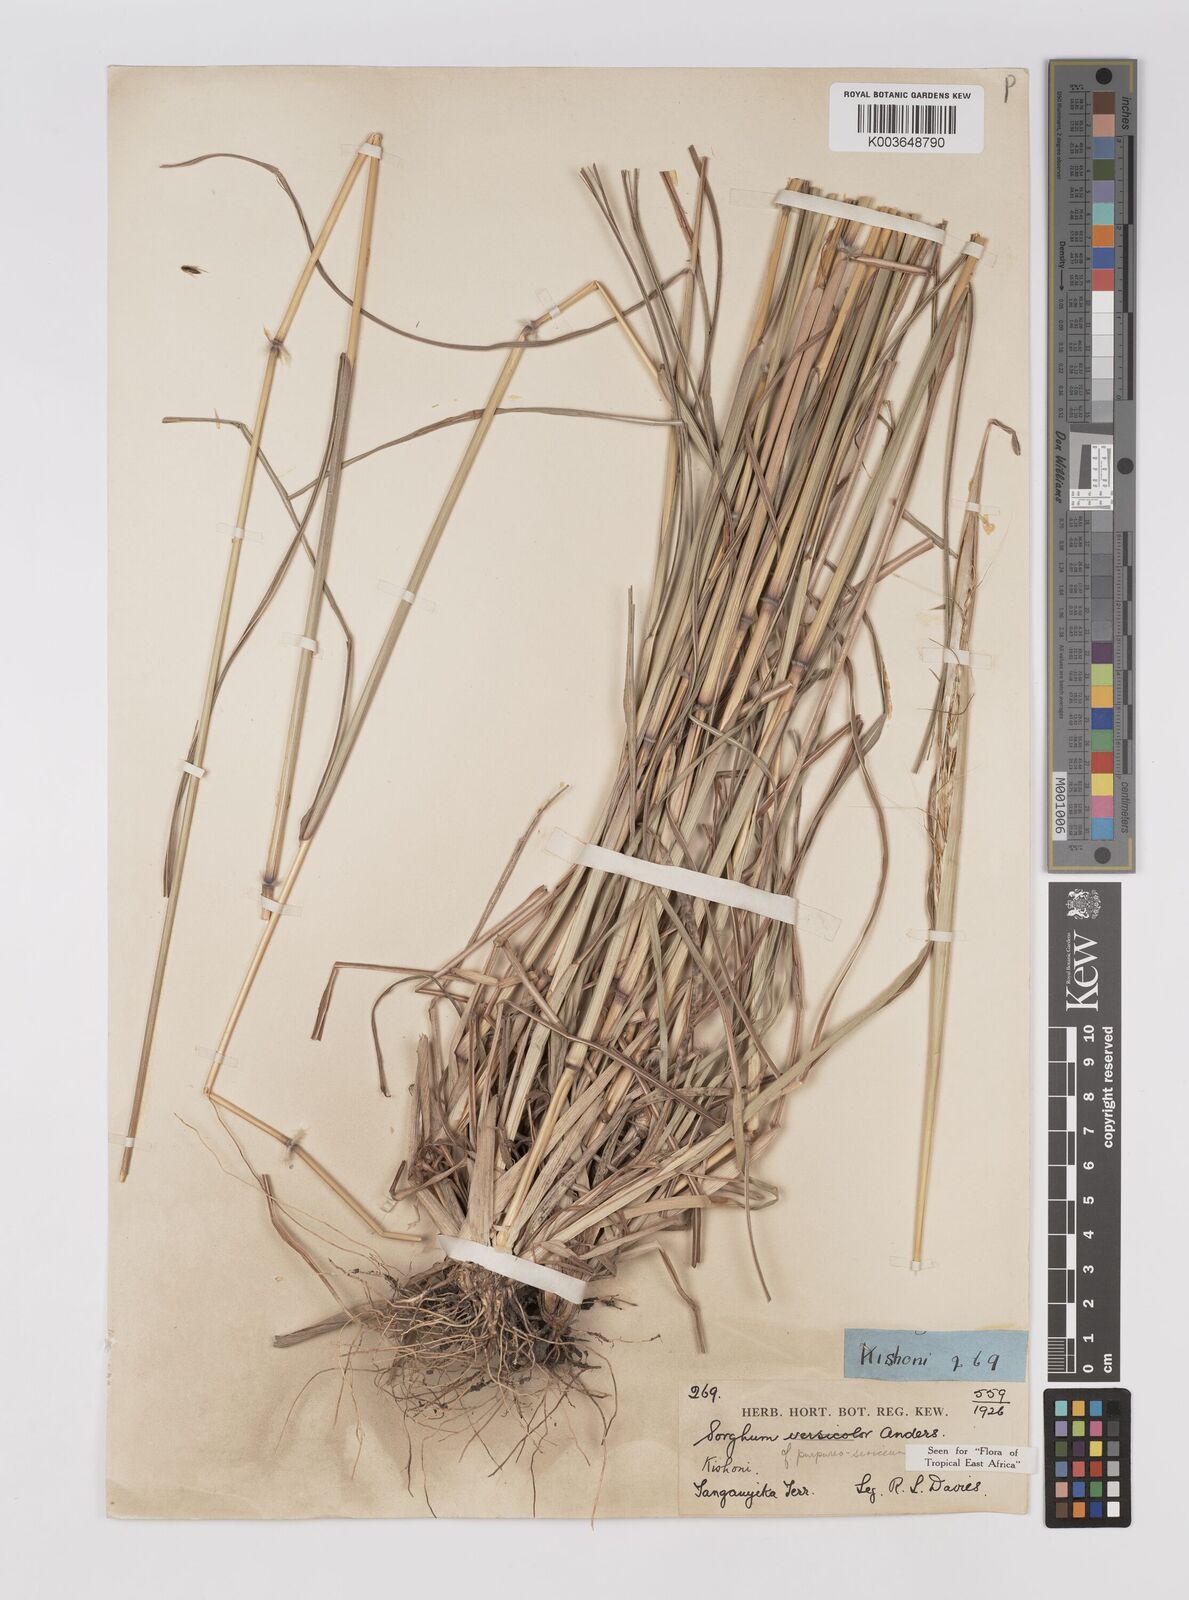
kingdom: Plantae
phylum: Tracheophyta
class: Liliopsida
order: Poales
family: Poaceae
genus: Sarga
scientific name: Sarga purpureosericea
